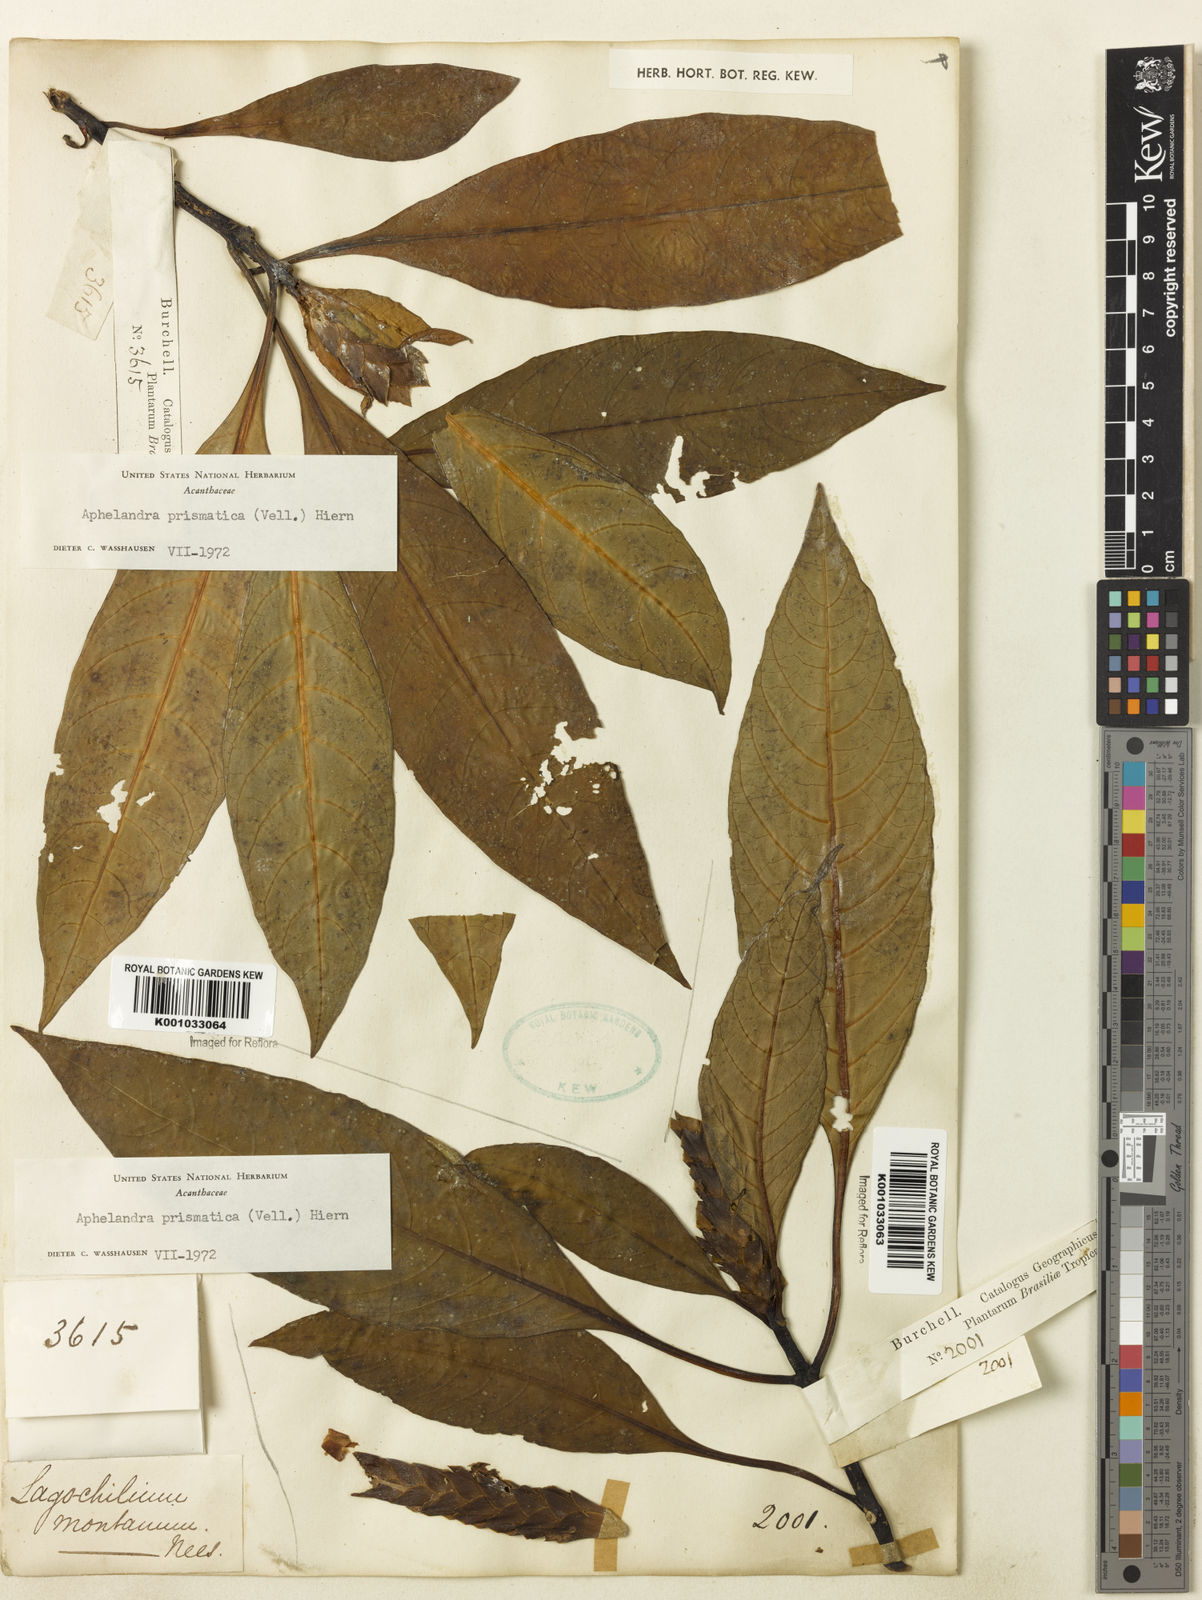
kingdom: Plantae
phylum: Tracheophyta
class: Magnoliopsida
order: Lamiales
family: Acanthaceae
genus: Aphelandra
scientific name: Aphelandra prismatica
